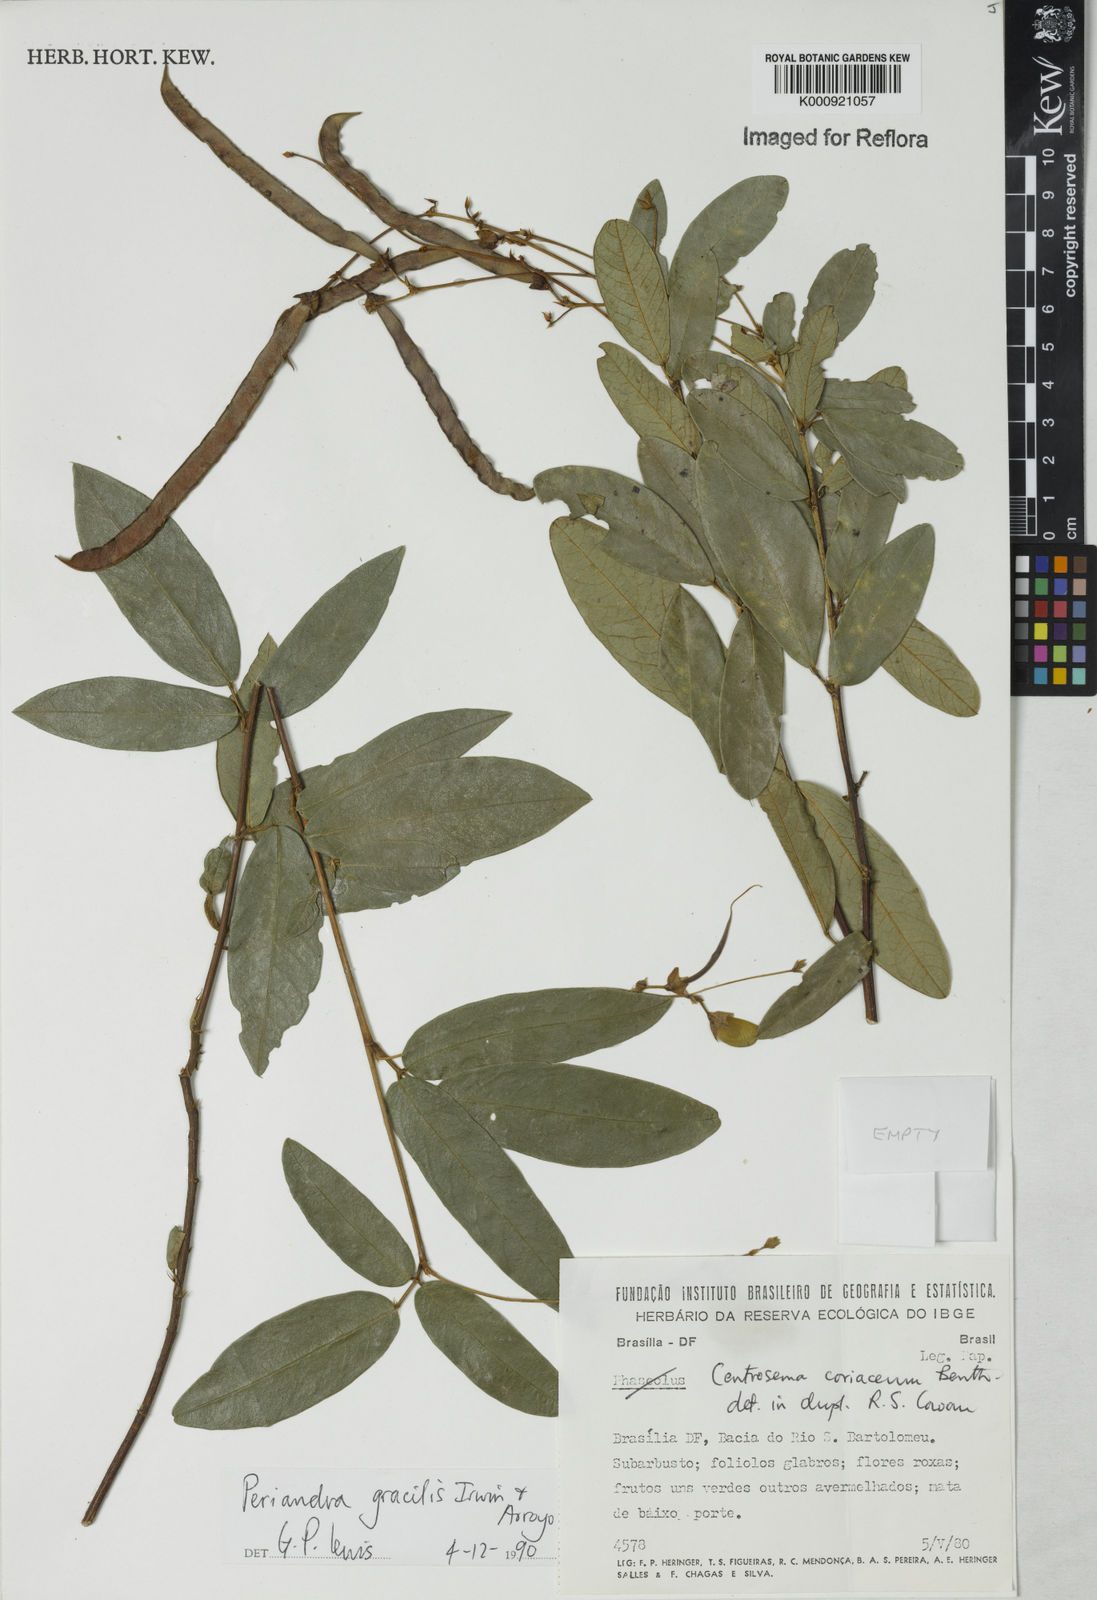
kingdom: Plantae
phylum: Tracheophyta
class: Magnoliopsida
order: Fabales
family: Fabaceae
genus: Periandra
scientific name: Periandra gracilis
